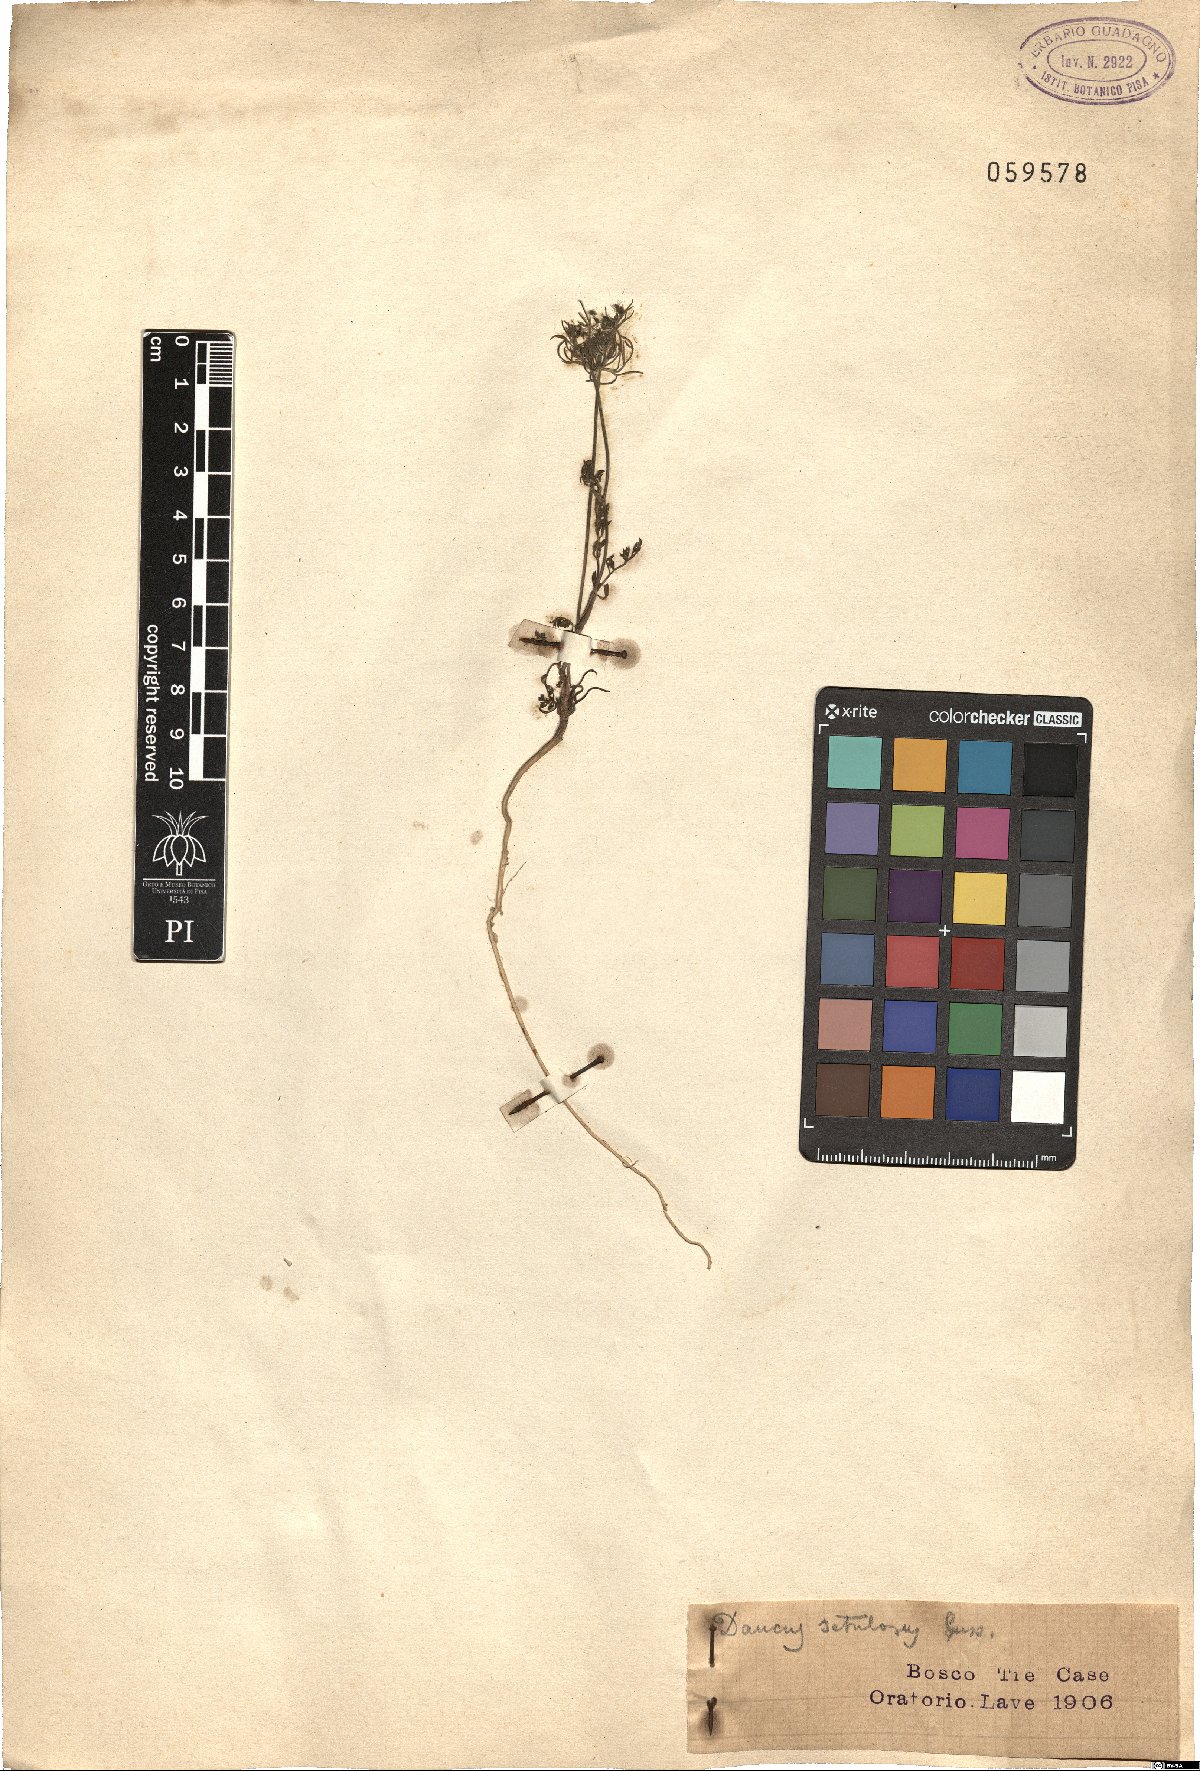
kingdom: Plantae
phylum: Tracheophyta
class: Magnoliopsida
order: Apiales
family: Apiaceae
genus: Daucus
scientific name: Daucus guttatus
